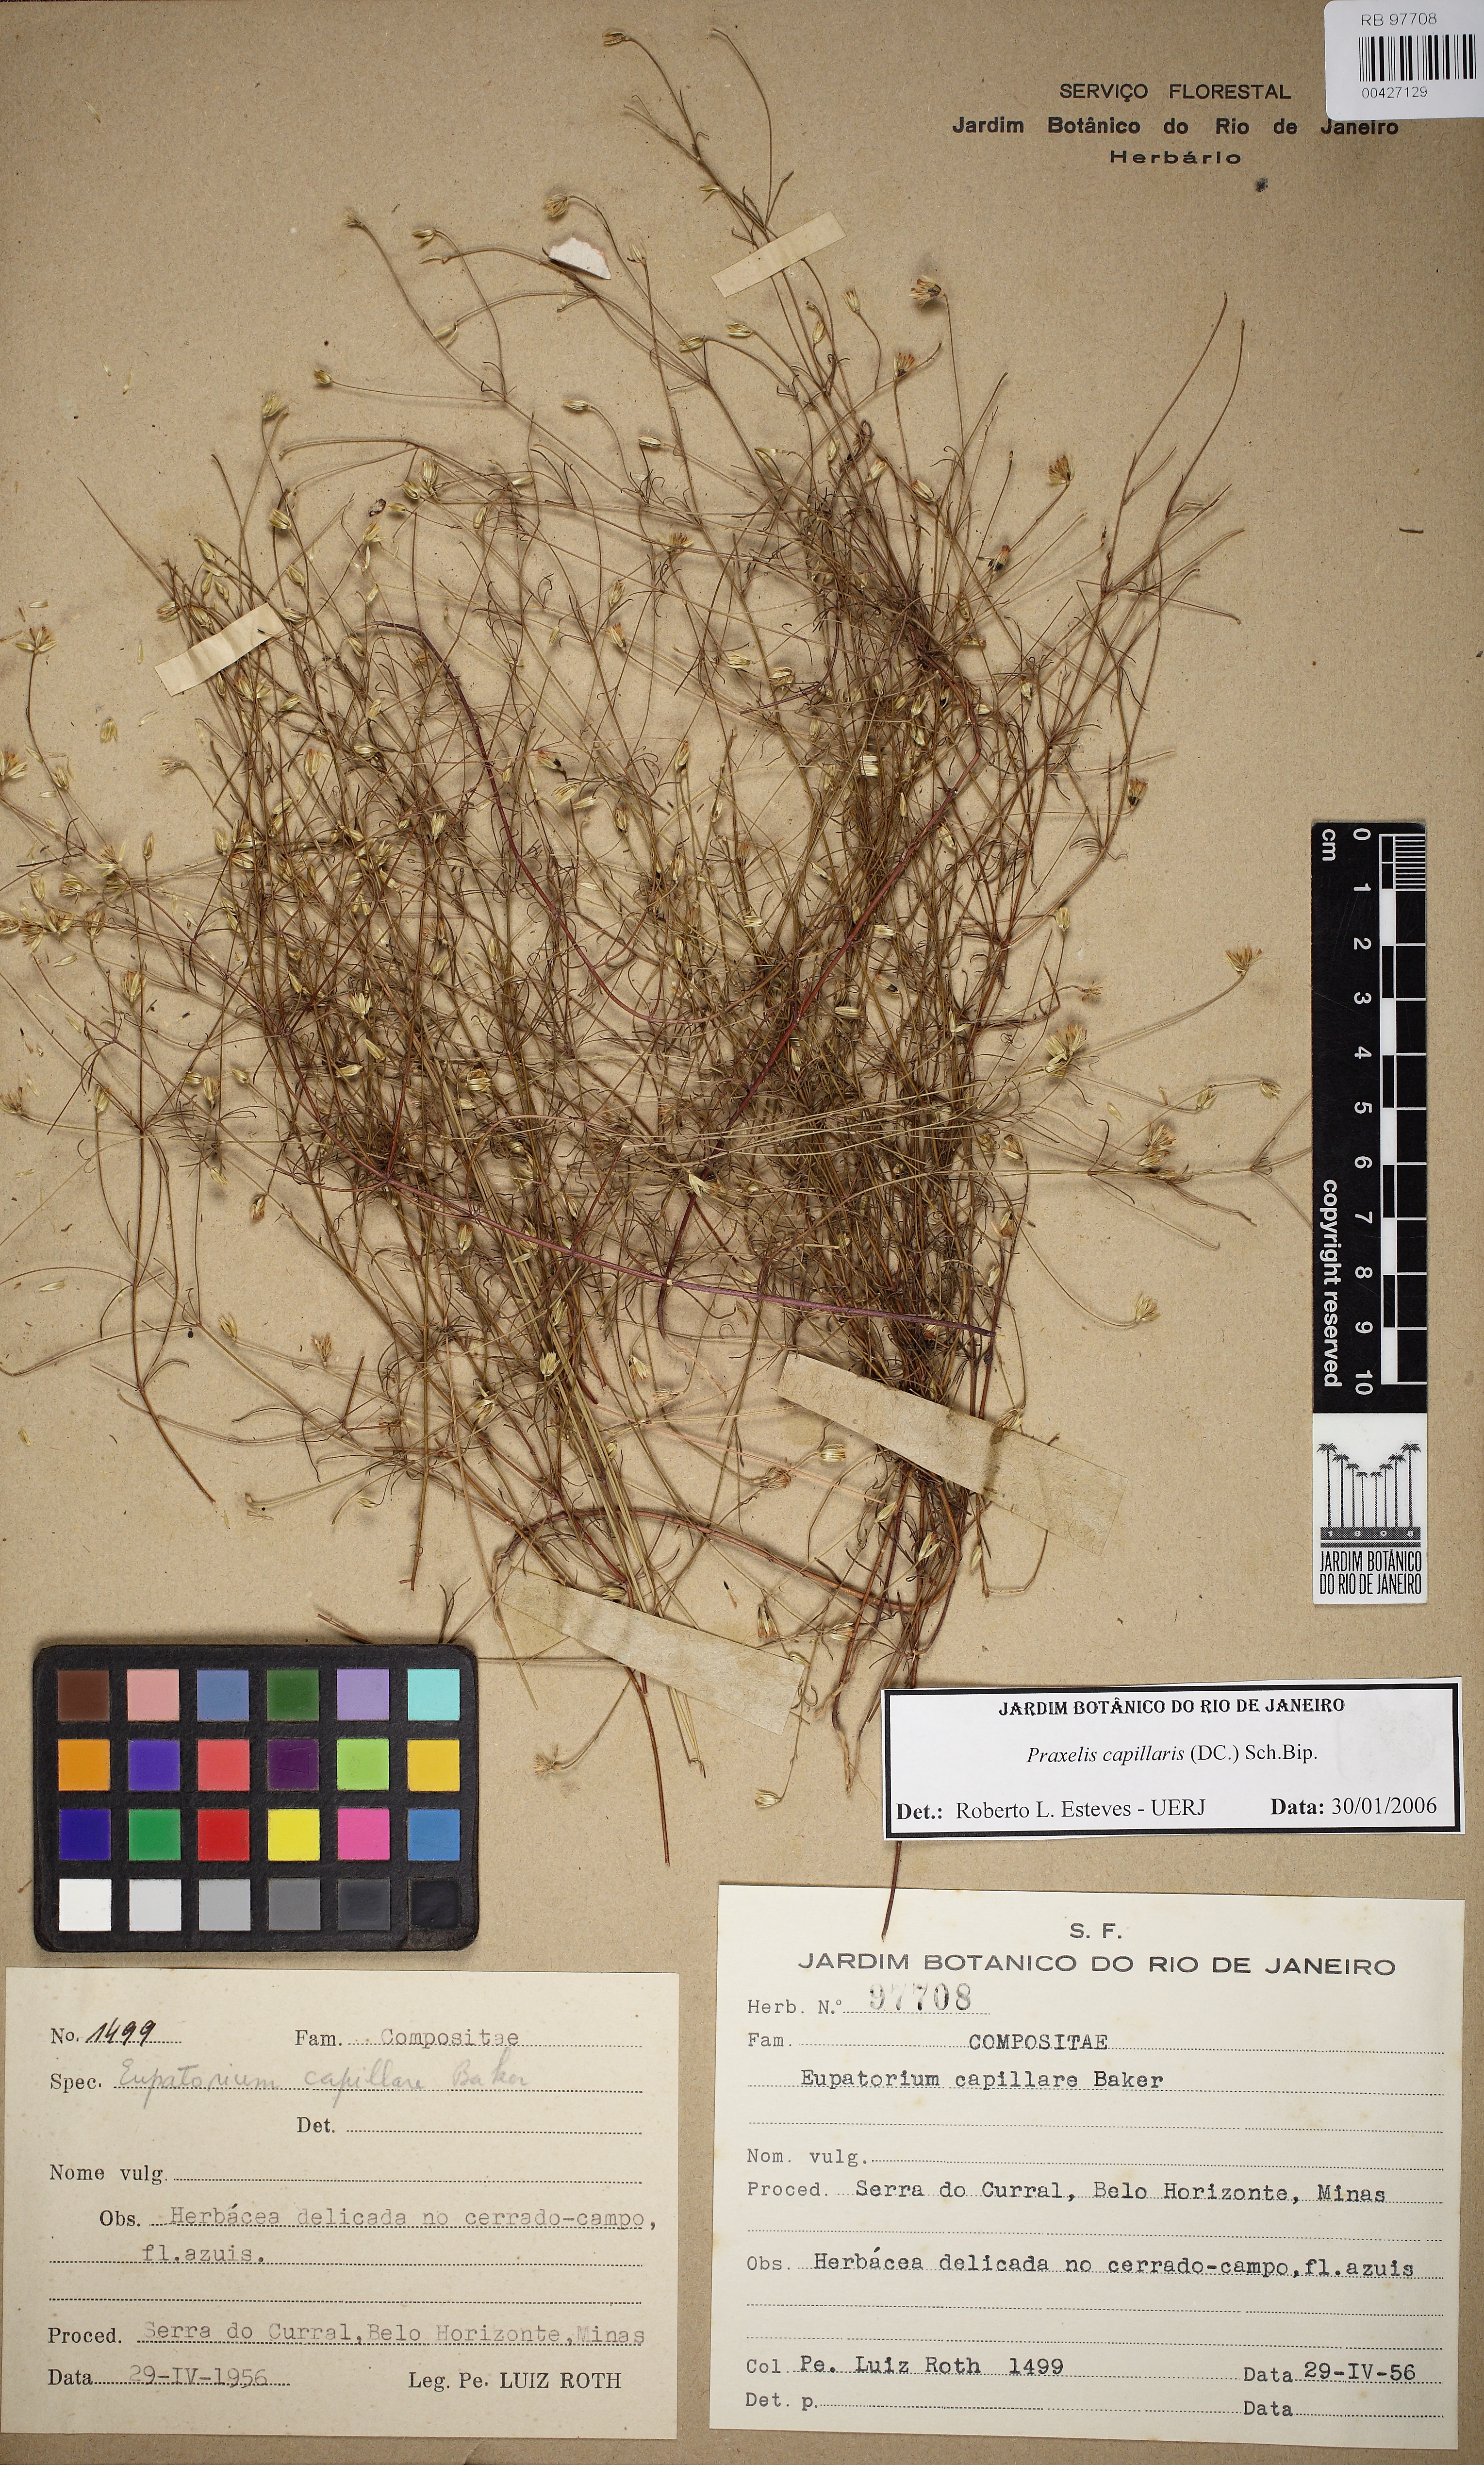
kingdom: Plantae
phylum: Tracheophyta
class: Magnoliopsida
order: Asterales
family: Asteraceae
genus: Praxelis
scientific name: Praxelis capillaris
